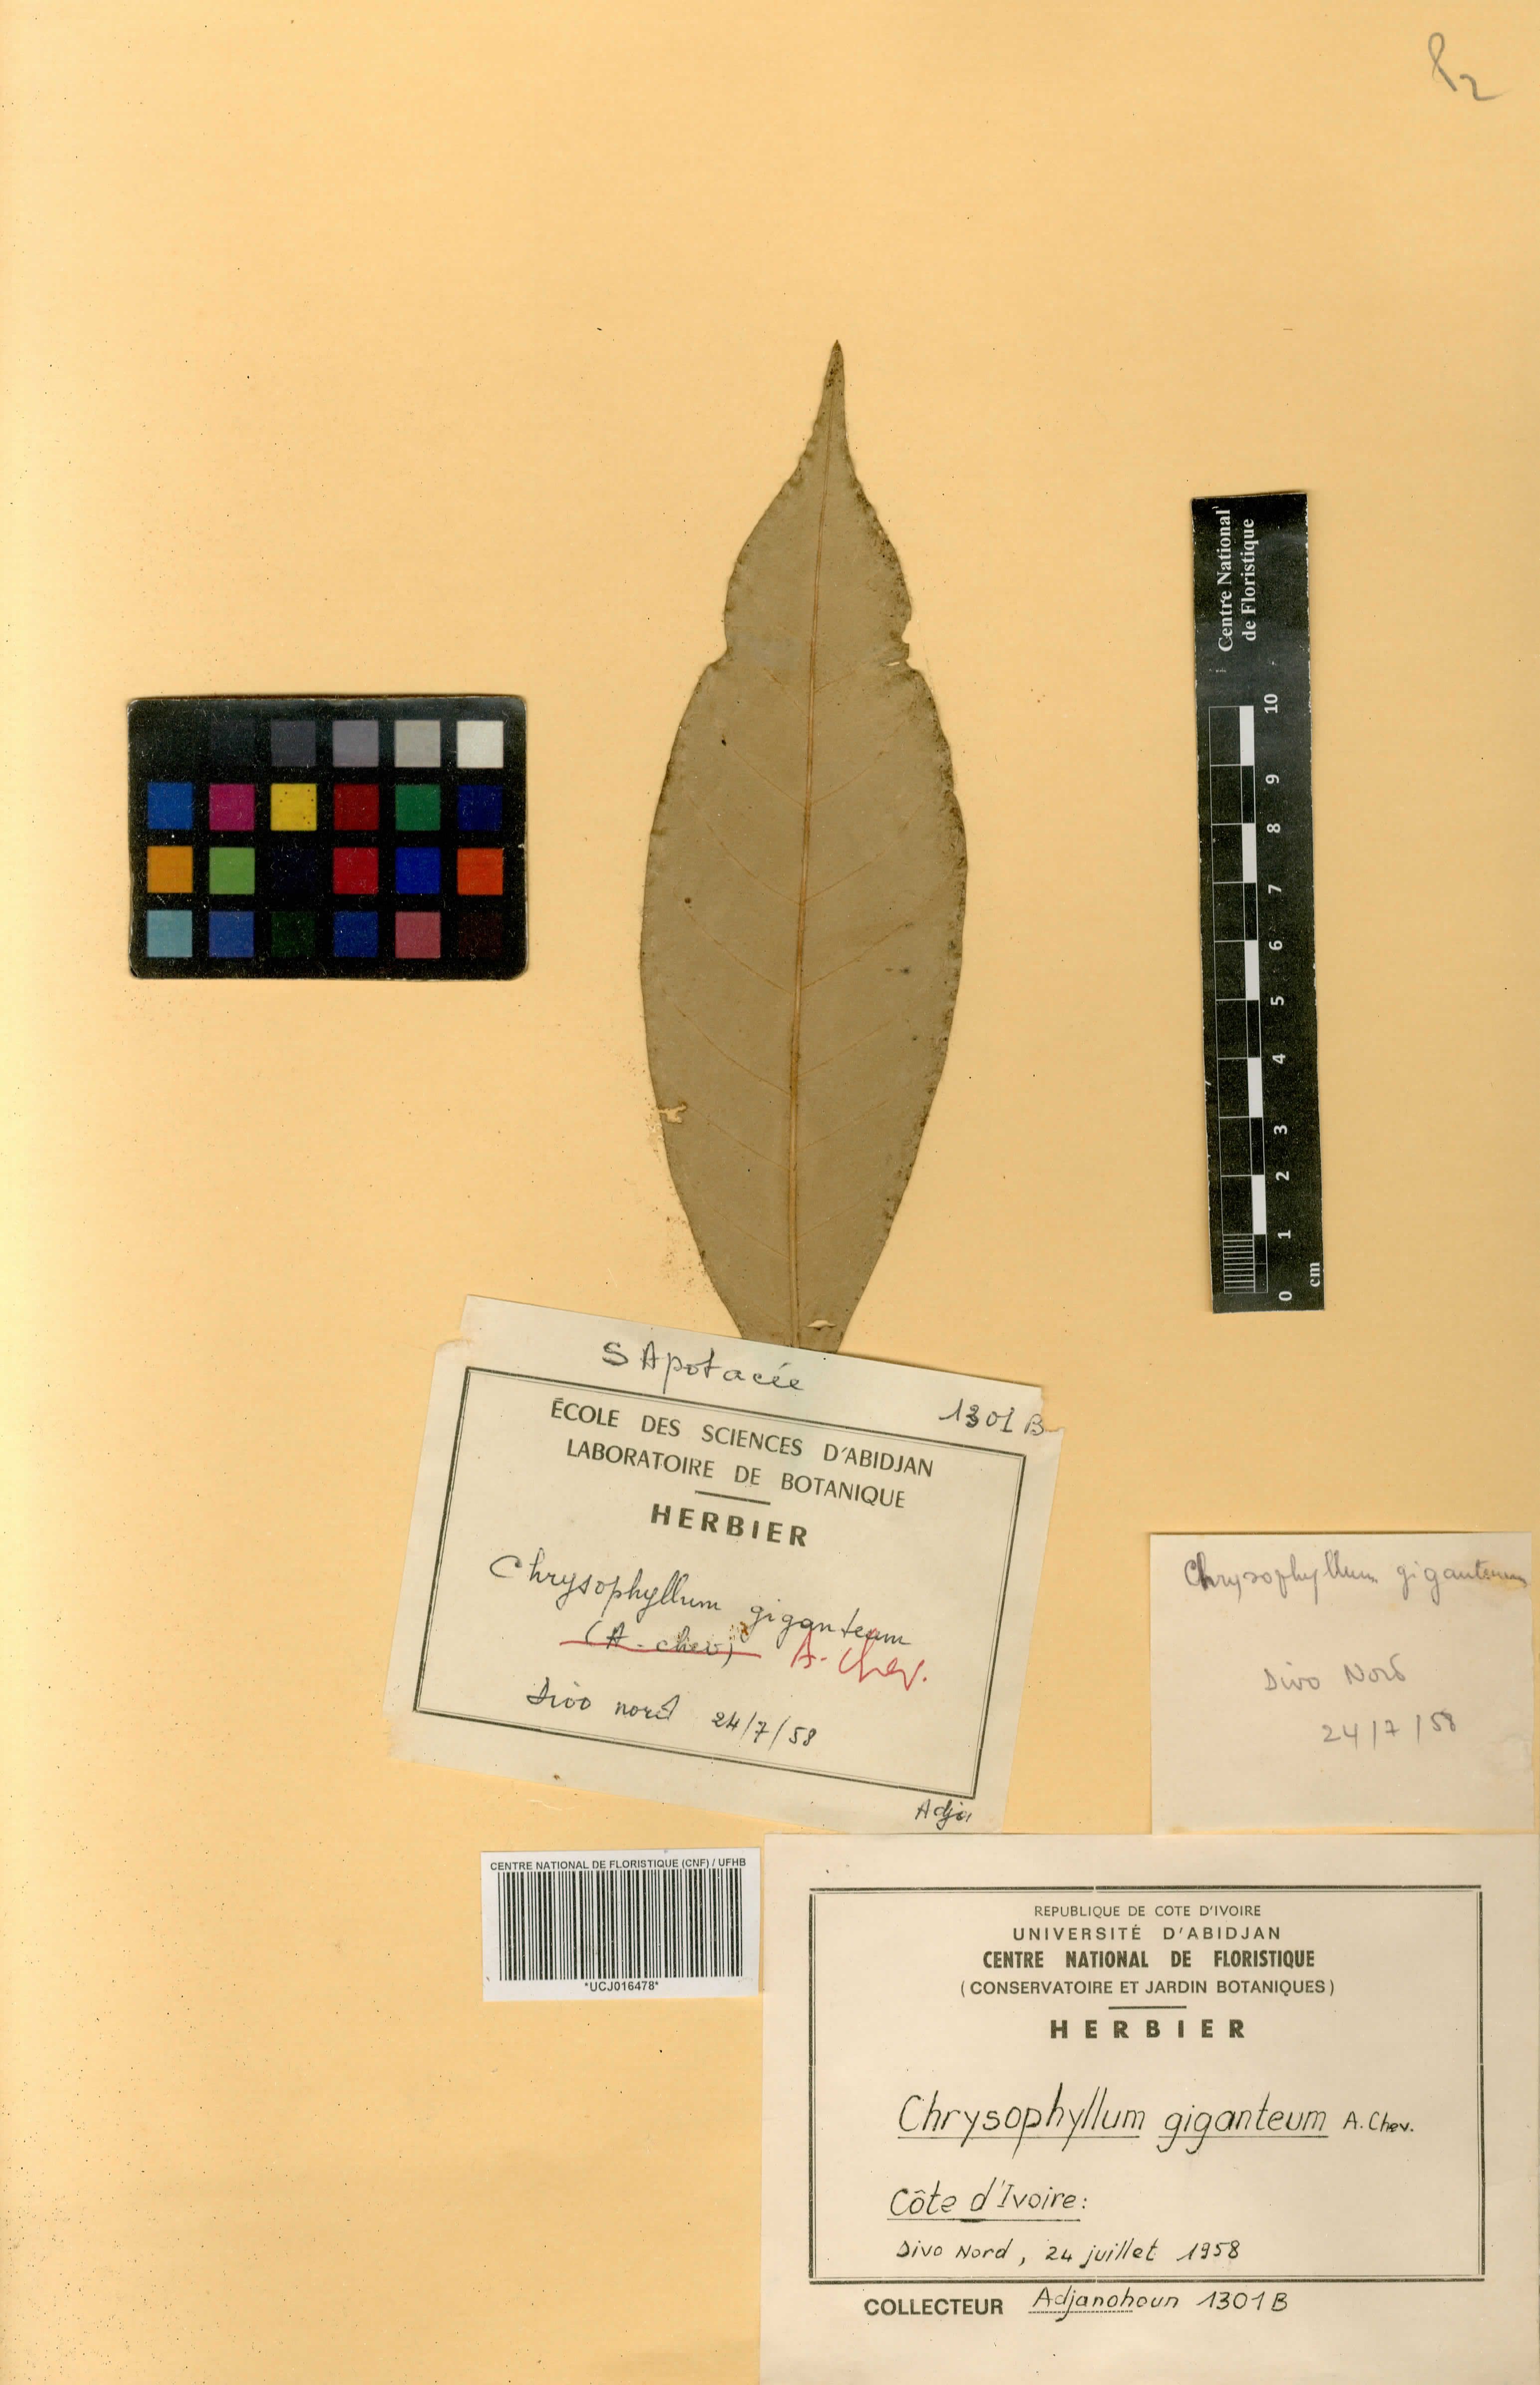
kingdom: Plantae
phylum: Tracheophyta
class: Magnoliopsida
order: Ericales
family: Sapotaceae
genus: Gambeya
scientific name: Gambeya gigantea
